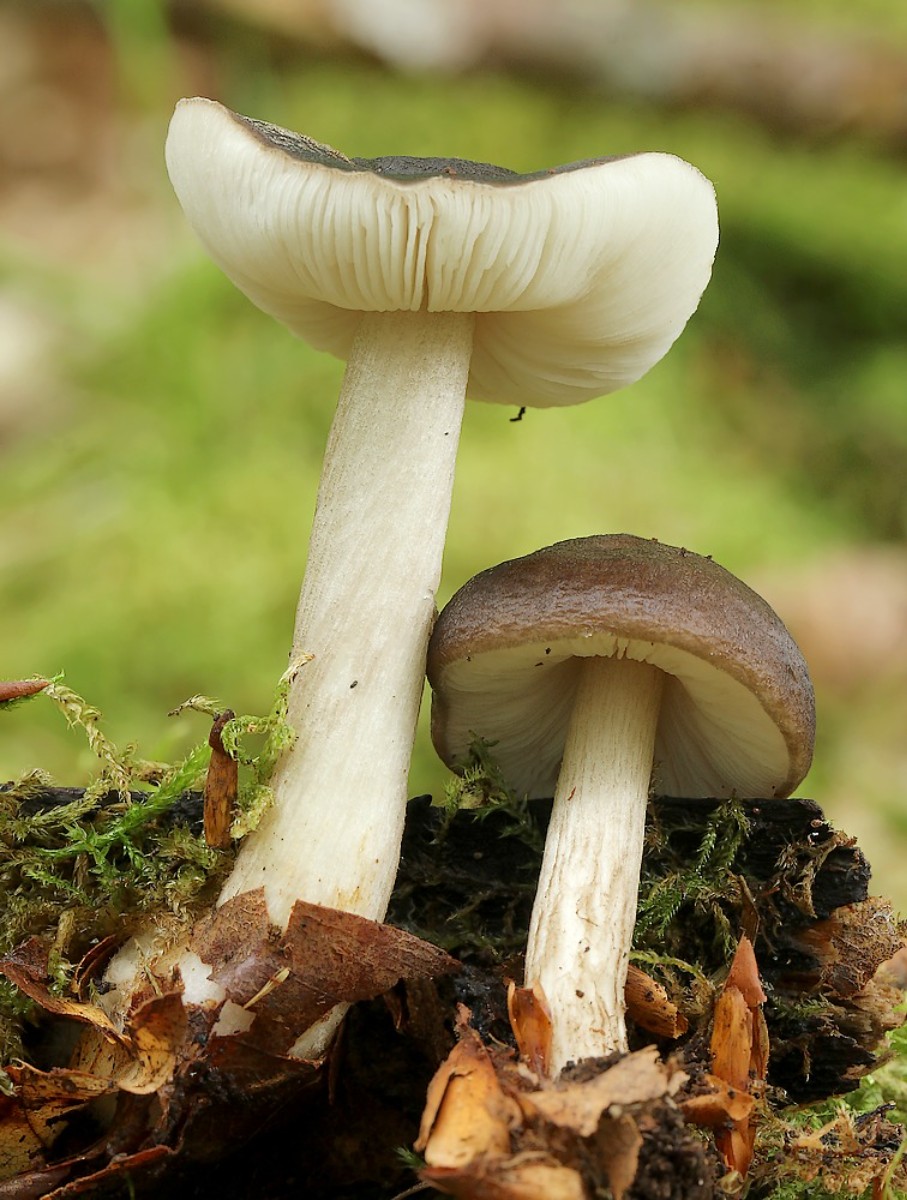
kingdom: Fungi
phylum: Basidiomycota
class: Agaricomycetes
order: Agaricales
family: Pluteaceae
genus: Pluteus
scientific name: Pluteus cervinus
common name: sodfarvet skærmhat
